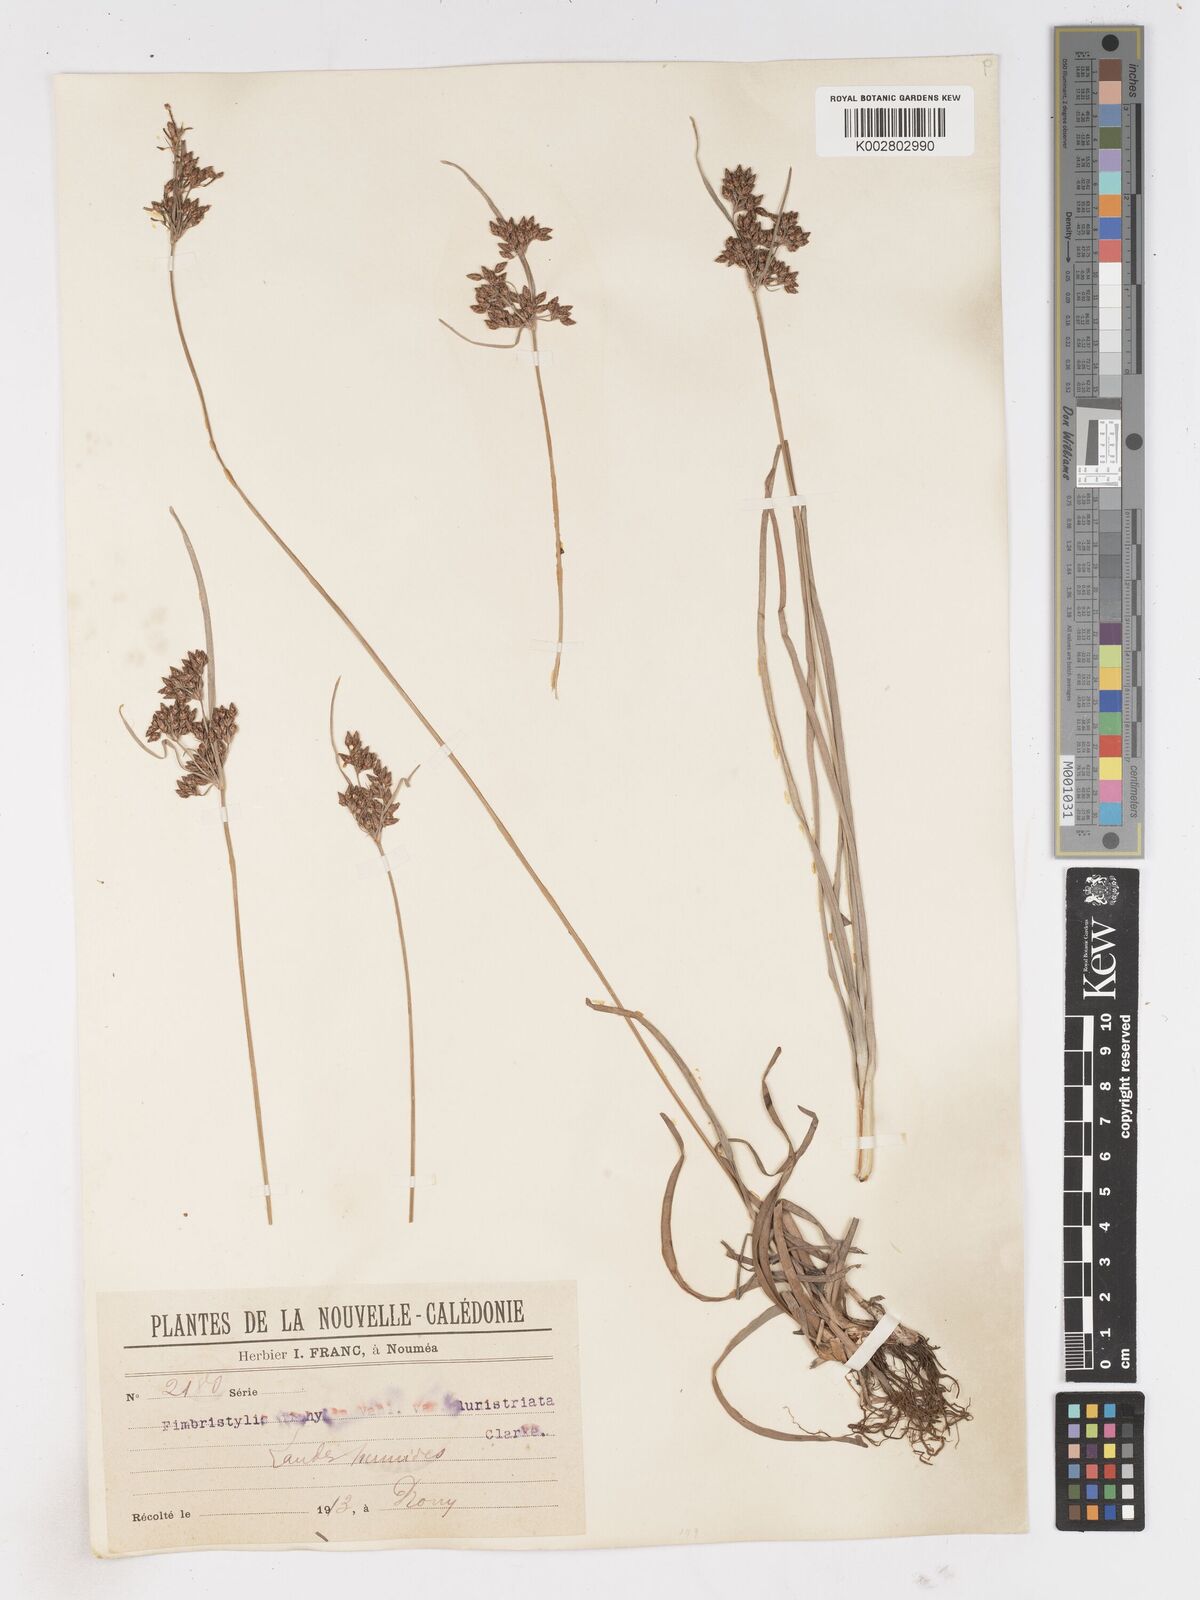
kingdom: Plantae
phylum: Tracheophyta
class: Liliopsida
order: Poales
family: Cyperaceae
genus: Fimbristylis
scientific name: Fimbristylis dichotoma
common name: Forked fimbry
